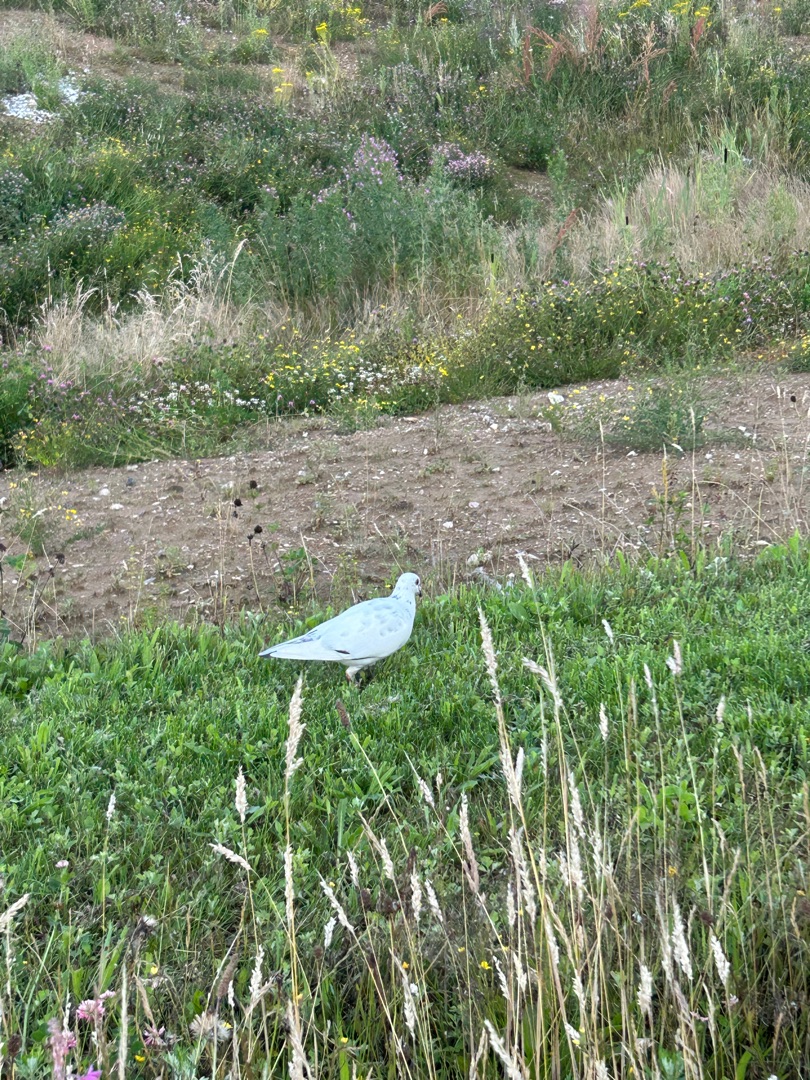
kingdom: Animalia
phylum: Chordata
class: Aves
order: Columbiformes
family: Columbidae
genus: Columba
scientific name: Columba livia
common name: Tamdue
